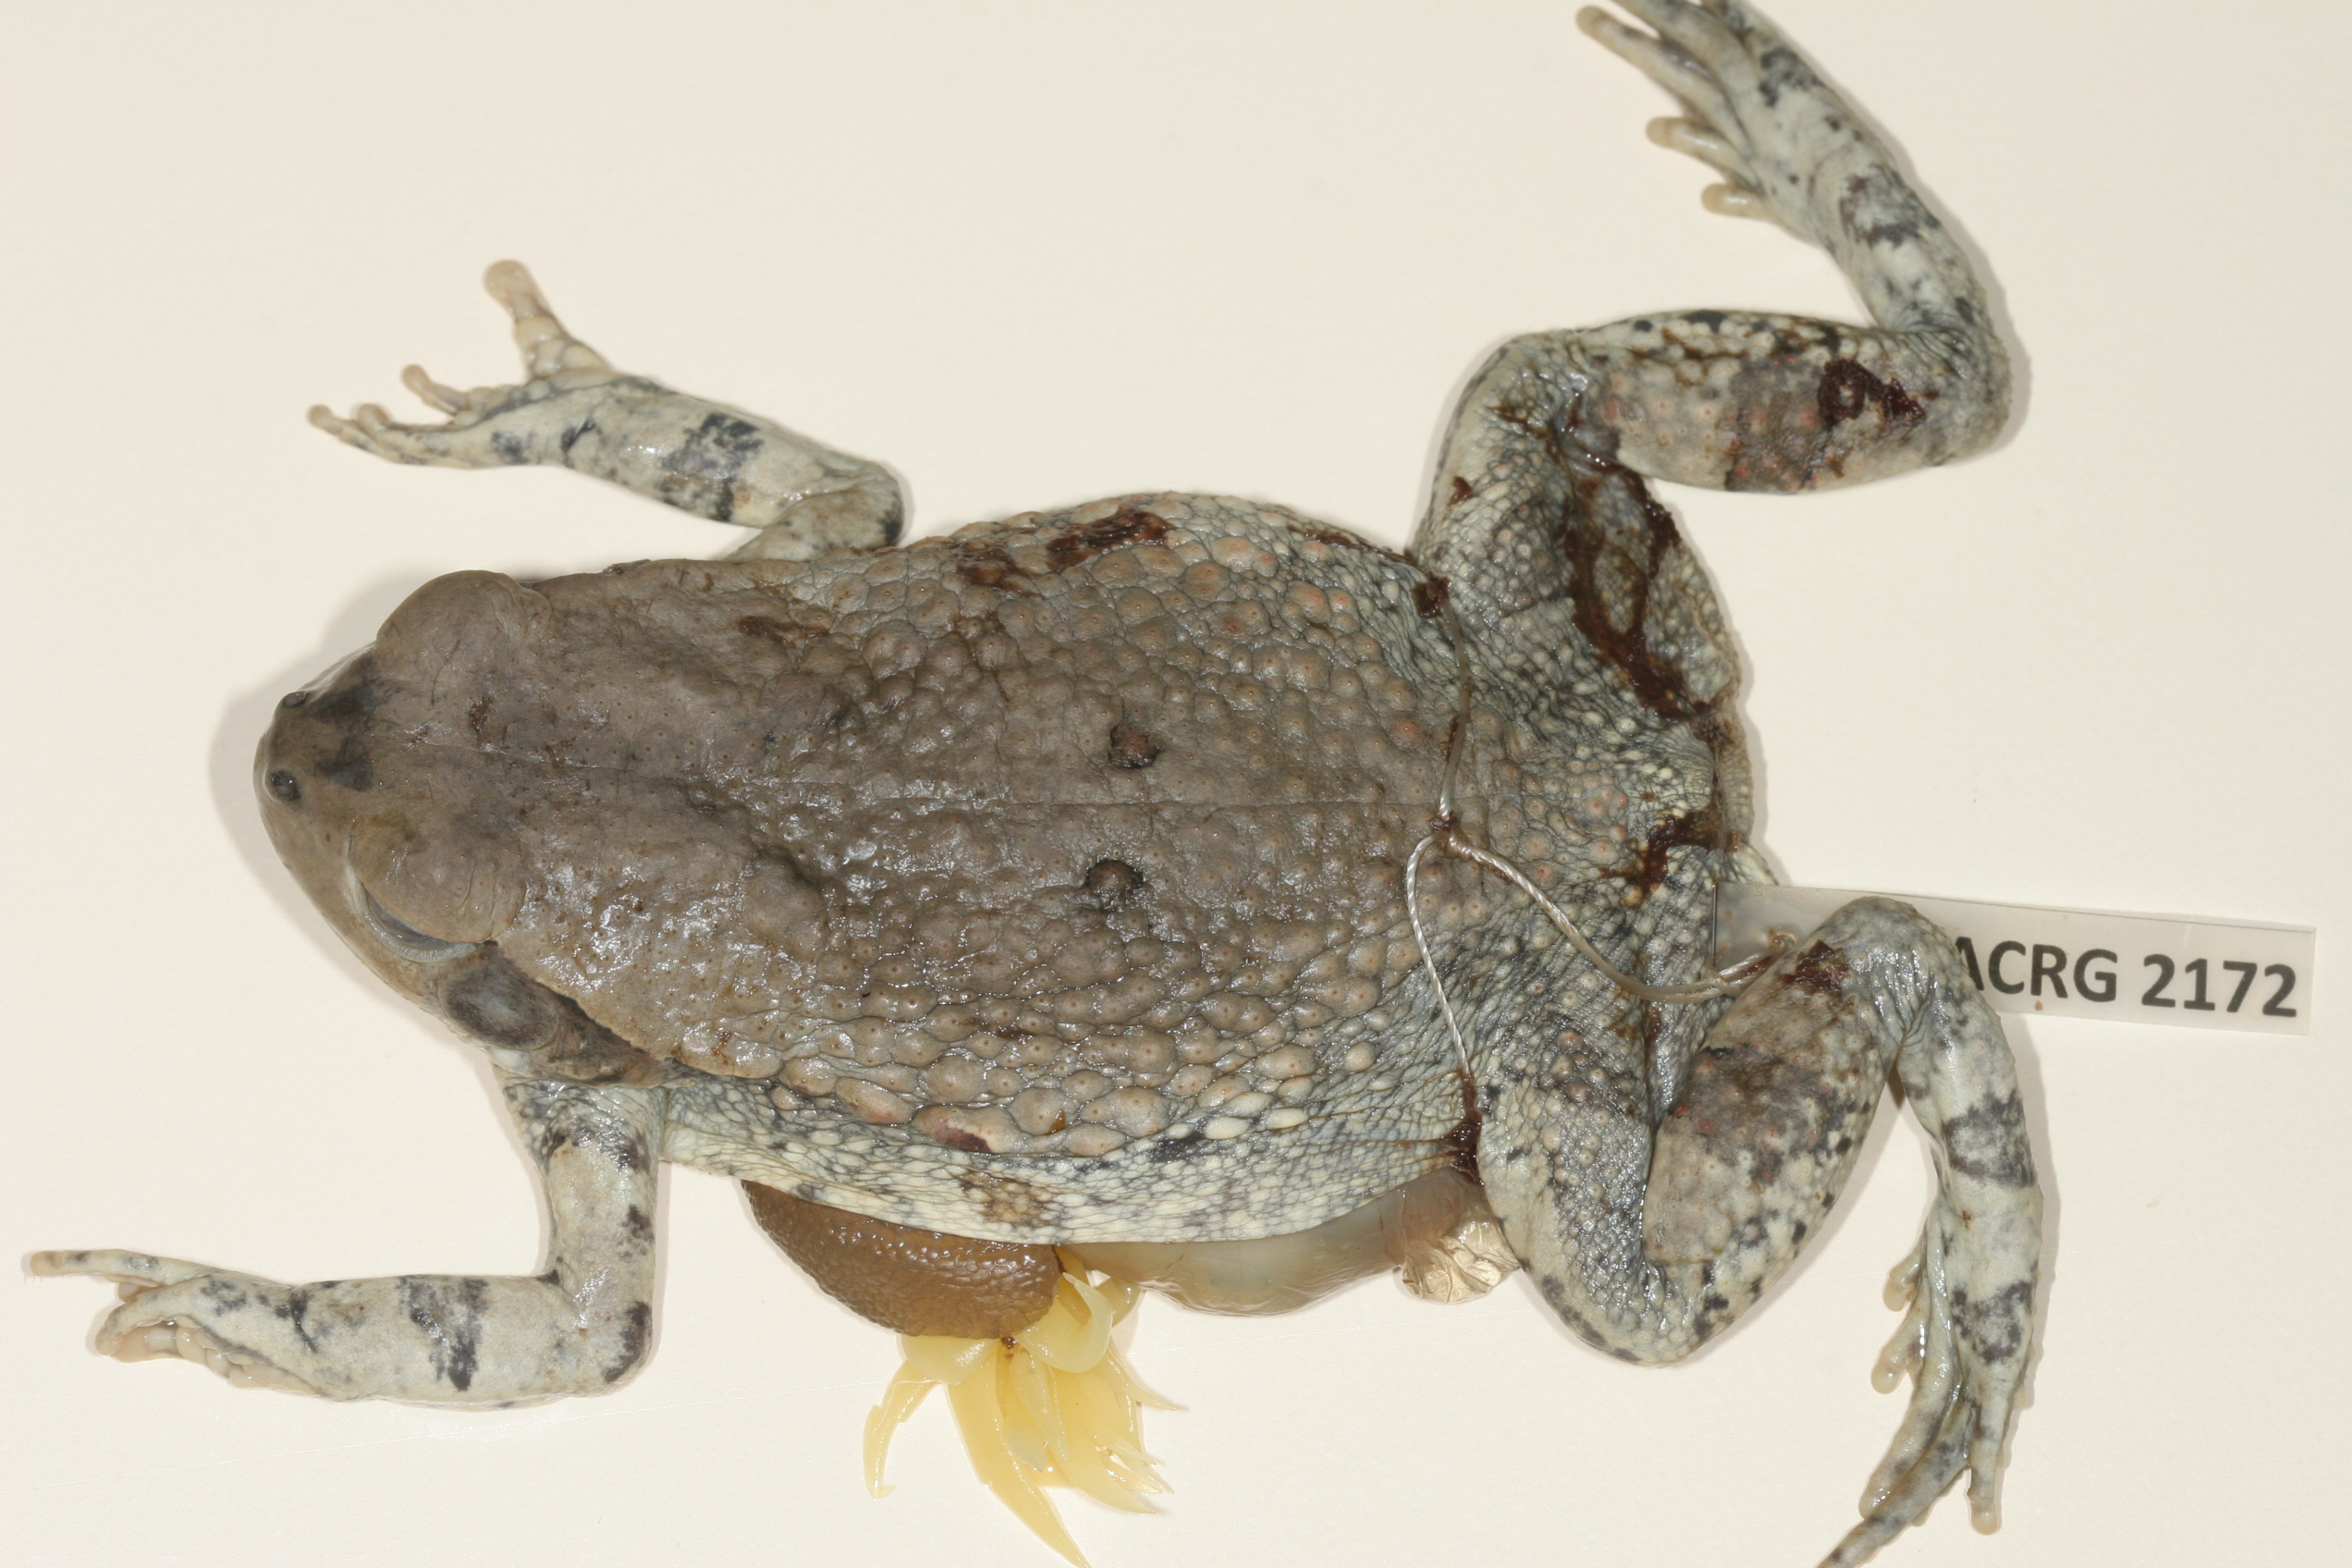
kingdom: Animalia
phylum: Chordata
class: Amphibia
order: Anura
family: Bufonidae
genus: Schismaderma
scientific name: Schismaderma carens
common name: African split-skin toad
